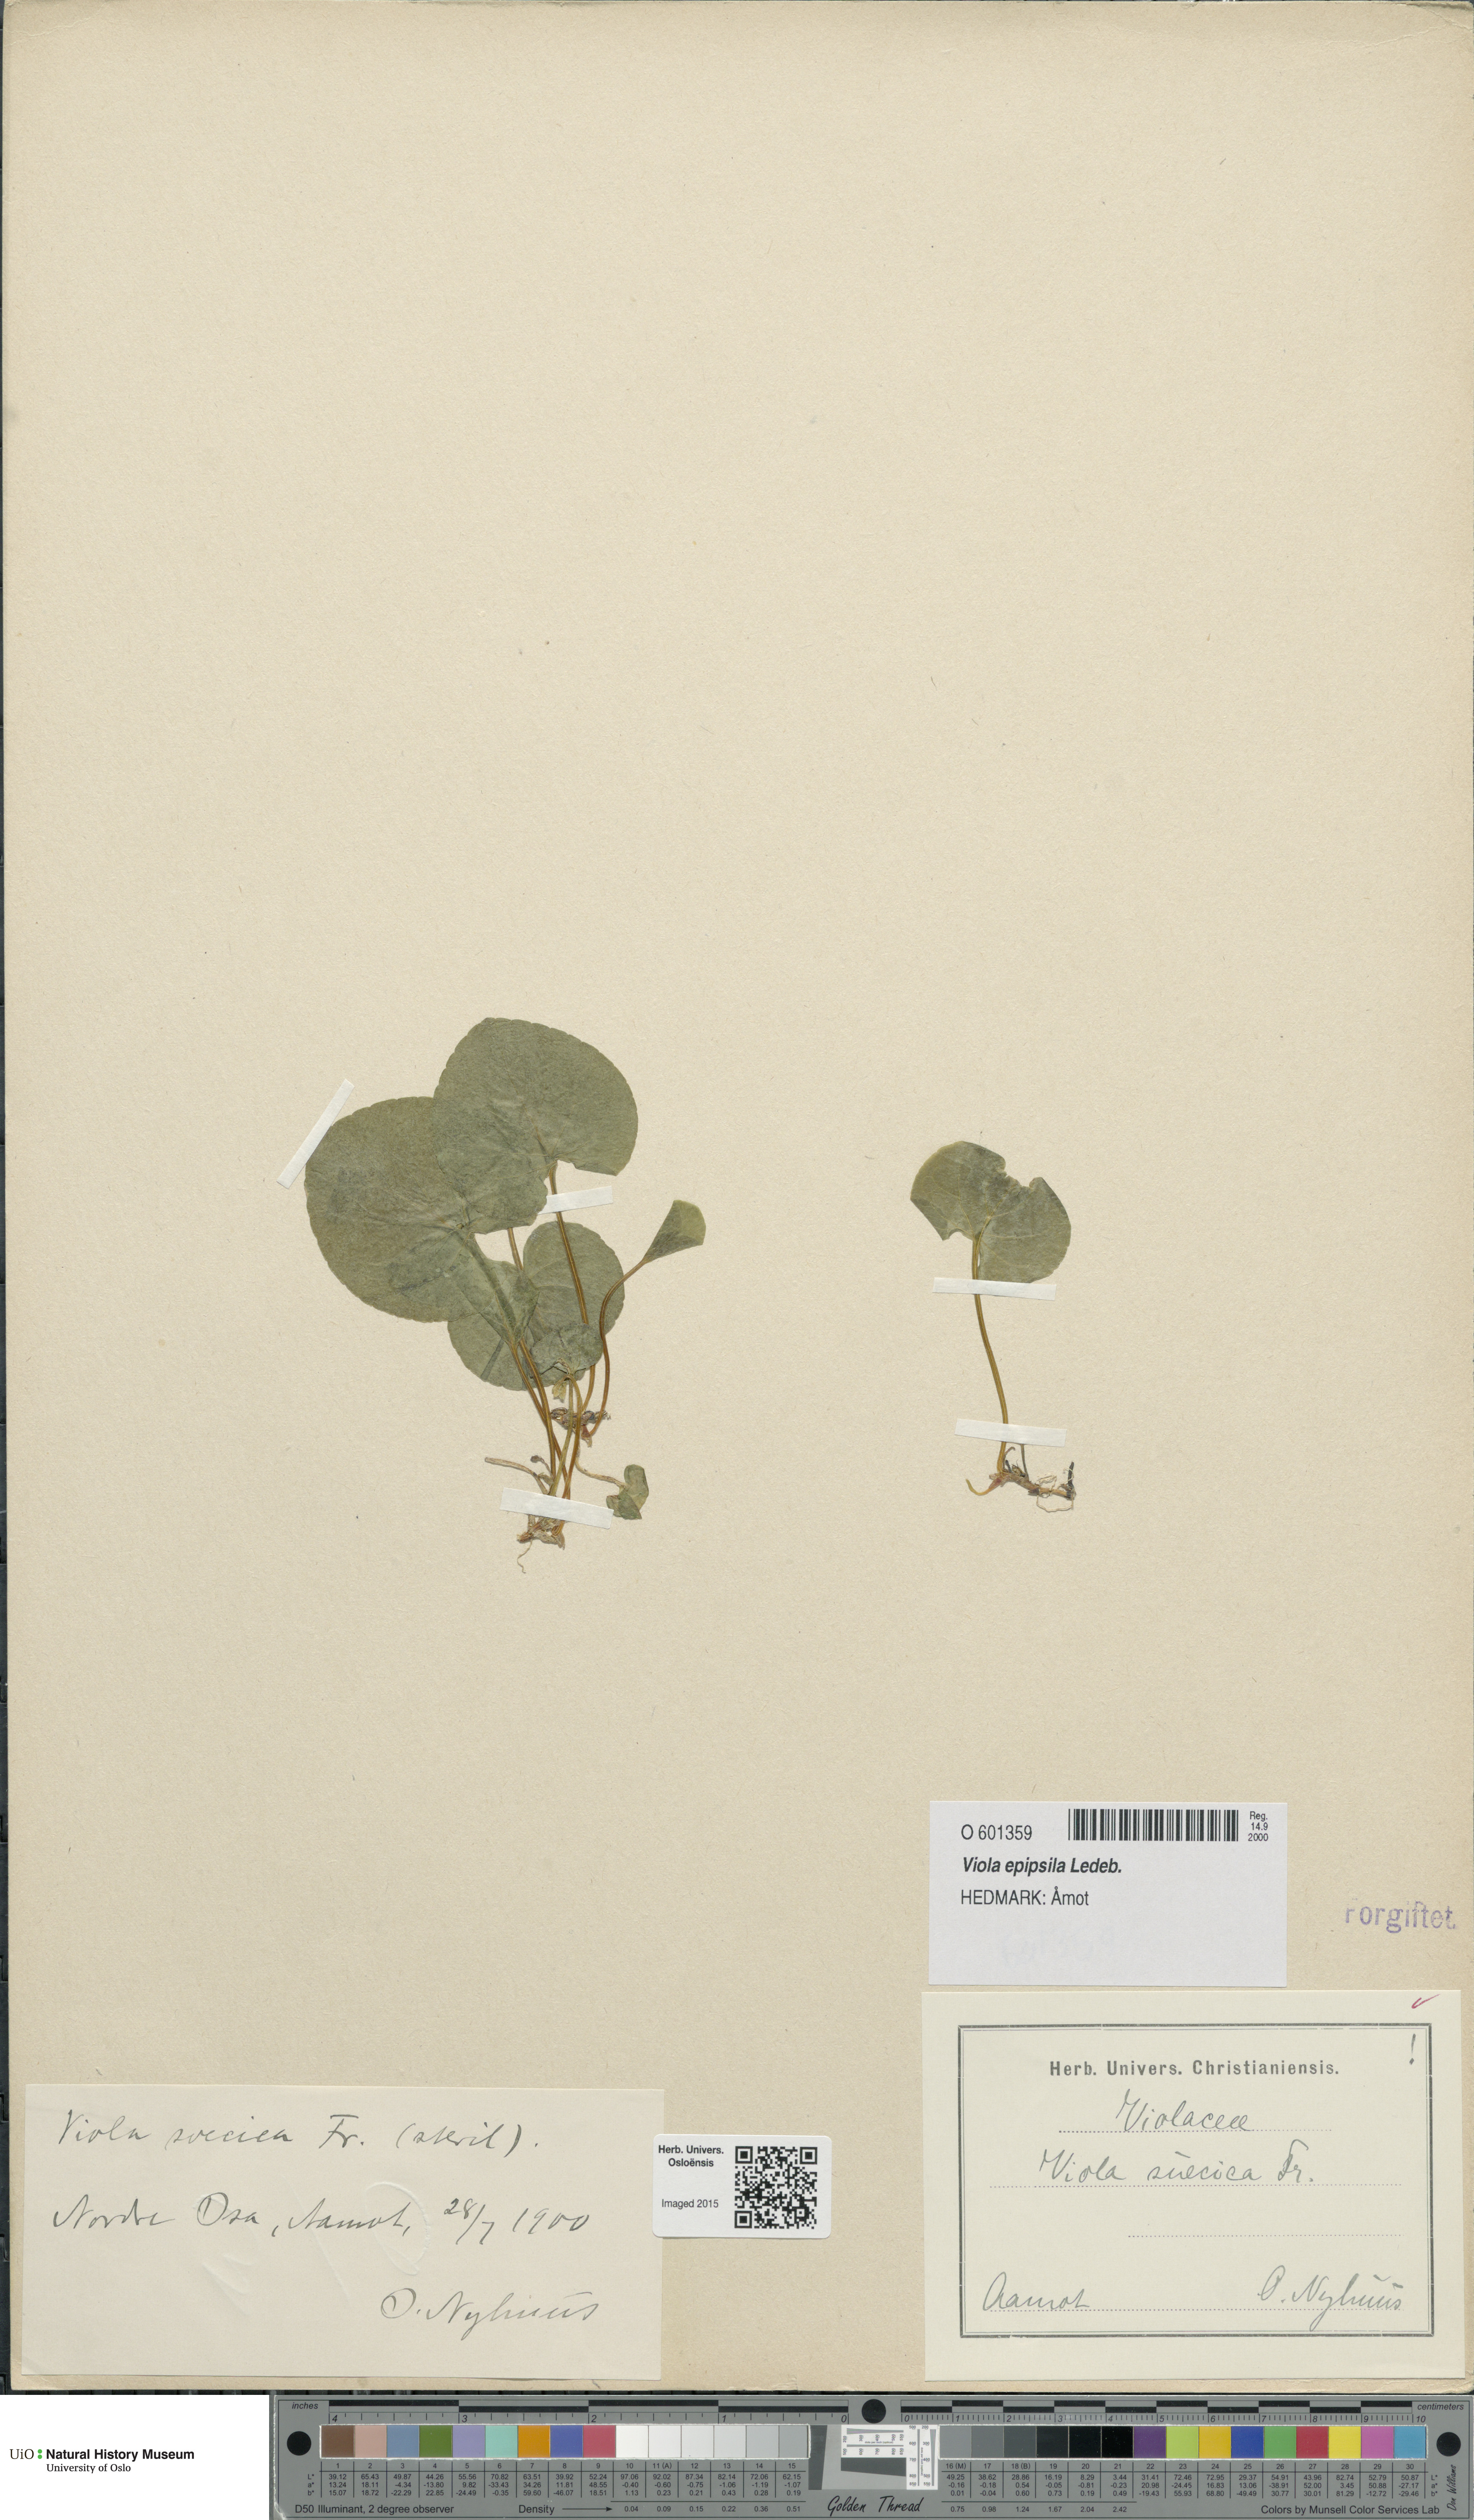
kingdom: Plantae
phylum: Tracheophyta
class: Magnoliopsida
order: Malpighiales
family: Violaceae
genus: Viola
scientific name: Viola epipsila
